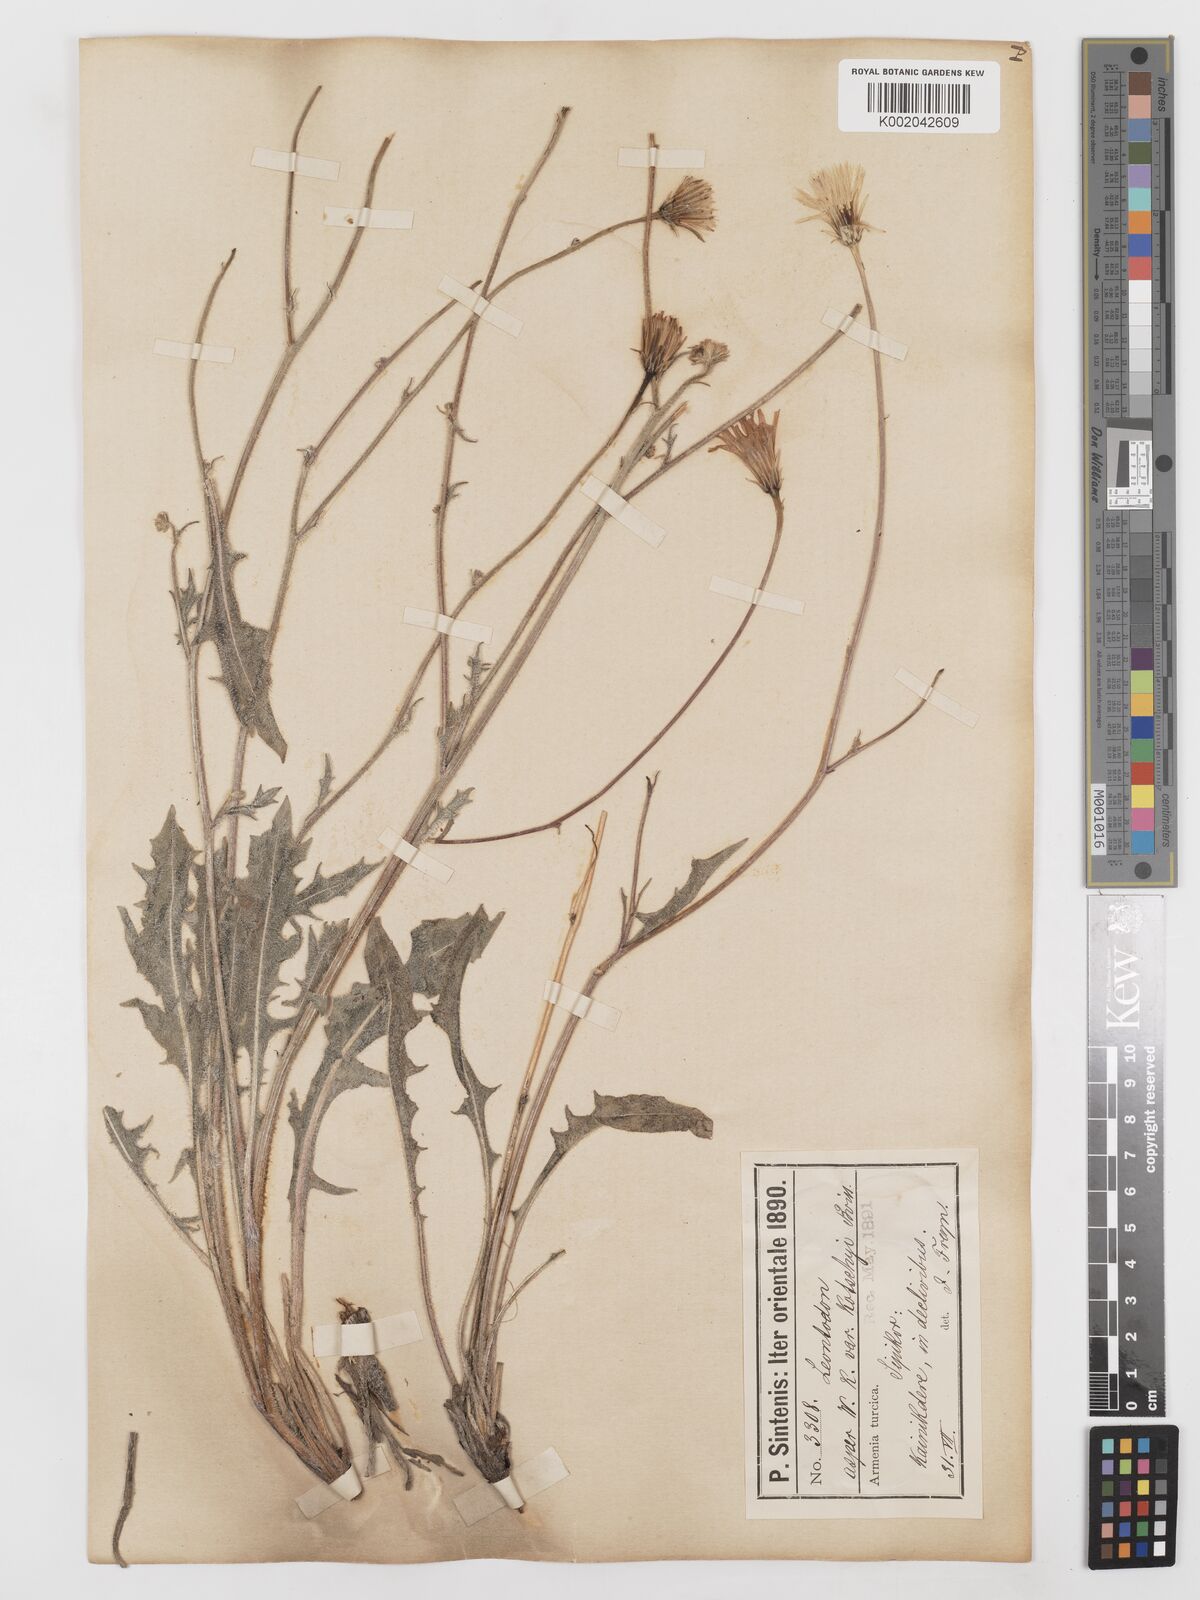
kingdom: Plantae
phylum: Tracheophyta
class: Magnoliopsida
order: Asterales
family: Asteraceae
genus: Leontodon
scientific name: Leontodon
